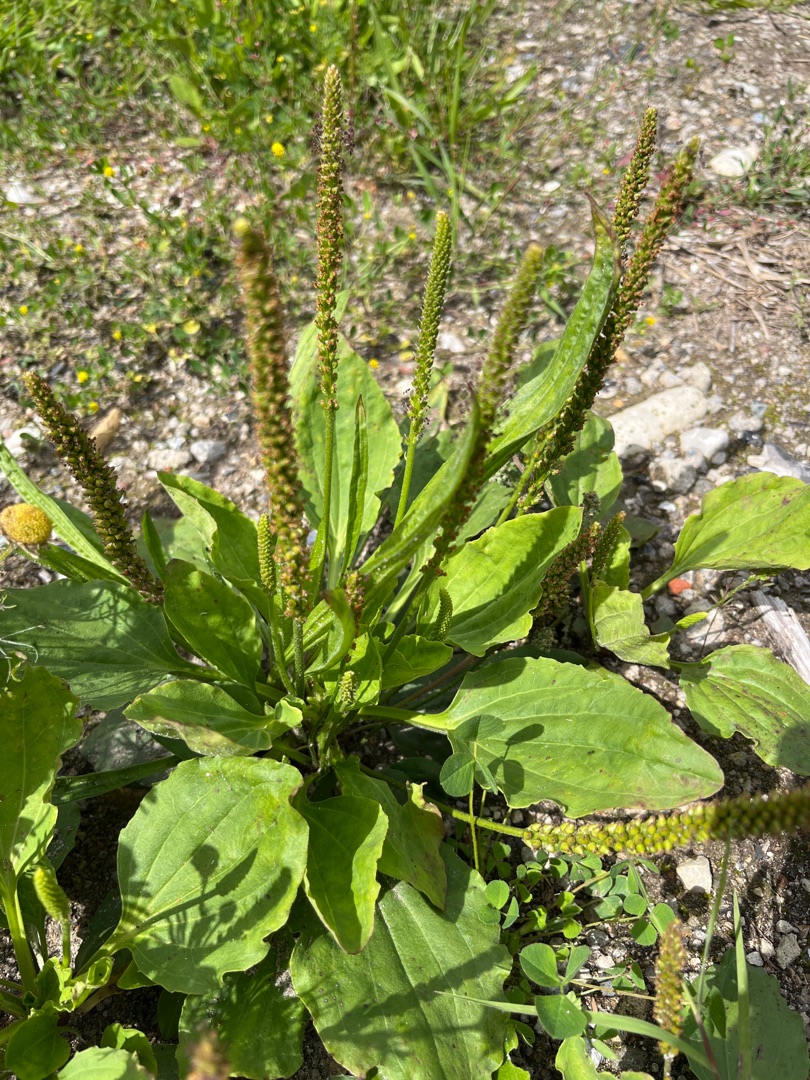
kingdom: Plantae
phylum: Tracheophyta
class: Magnoliopsida
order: Lamiales
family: Plantaginaceae
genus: Plantago
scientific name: Plantago major
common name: Glat vejbred
